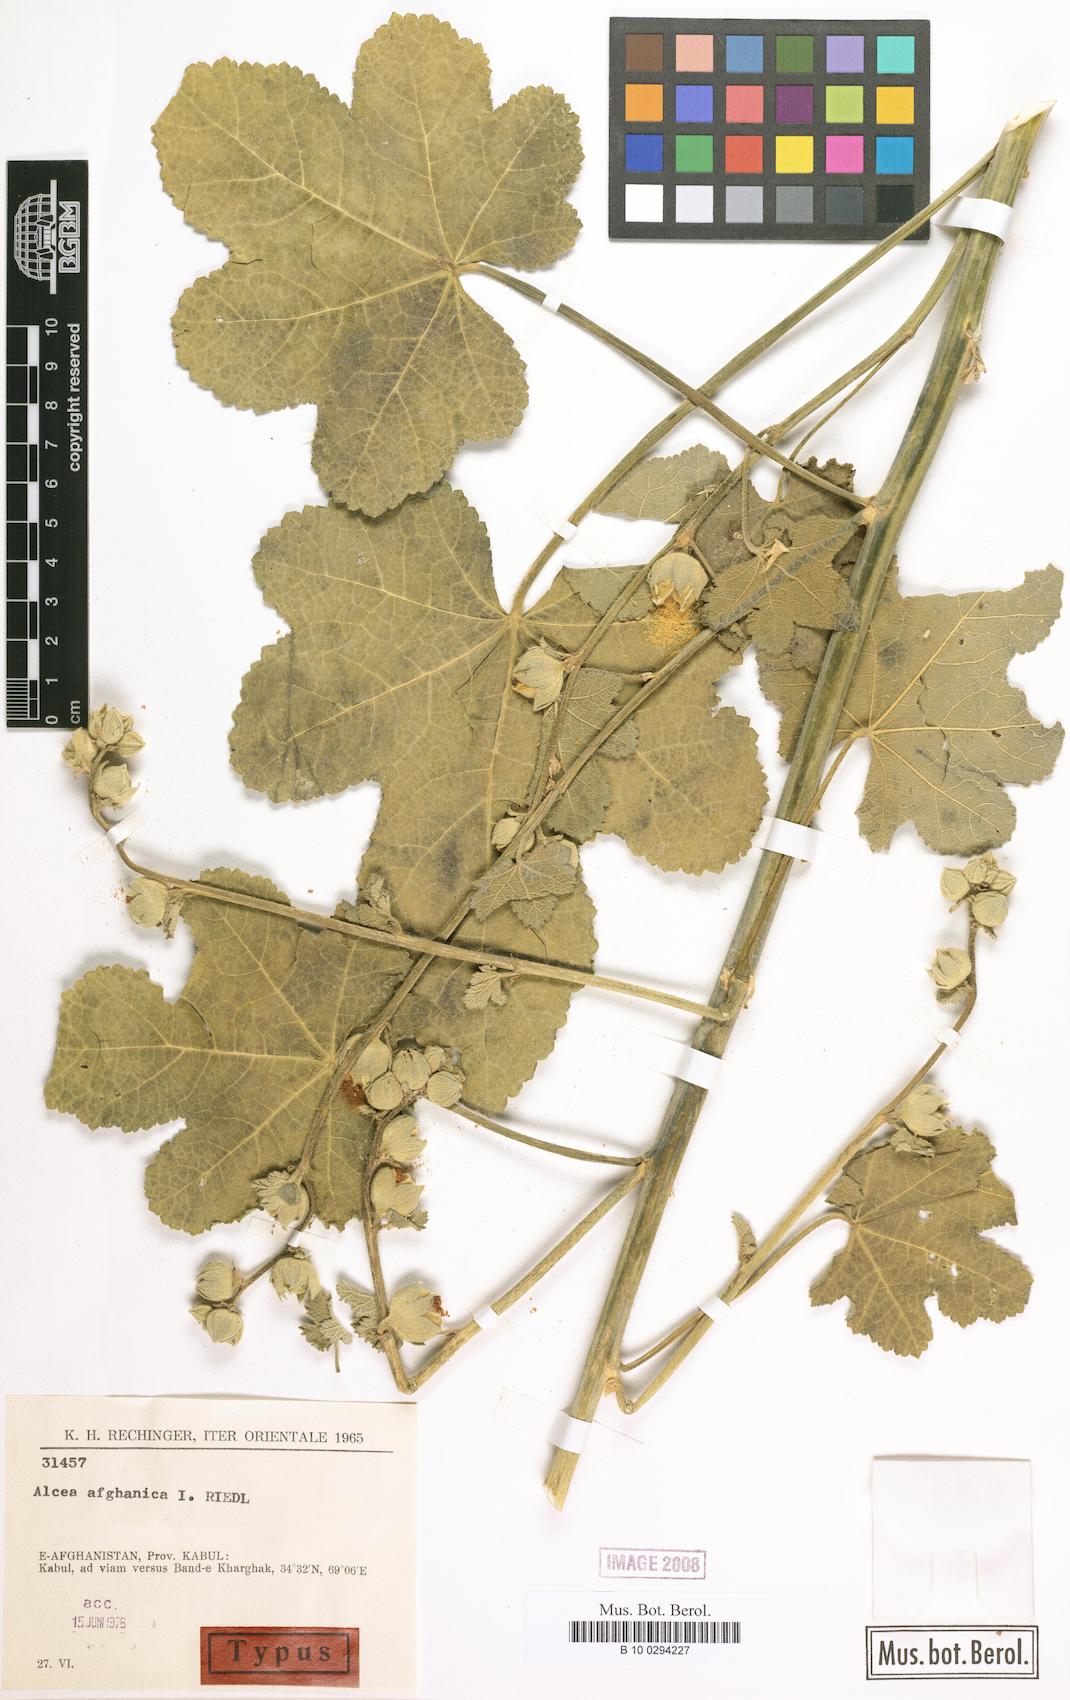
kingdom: Plantae
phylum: Tracheophyta
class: Magnoliopsida
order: Malvales
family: Malvaceae
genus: Alcea
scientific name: Alcea afghanica
